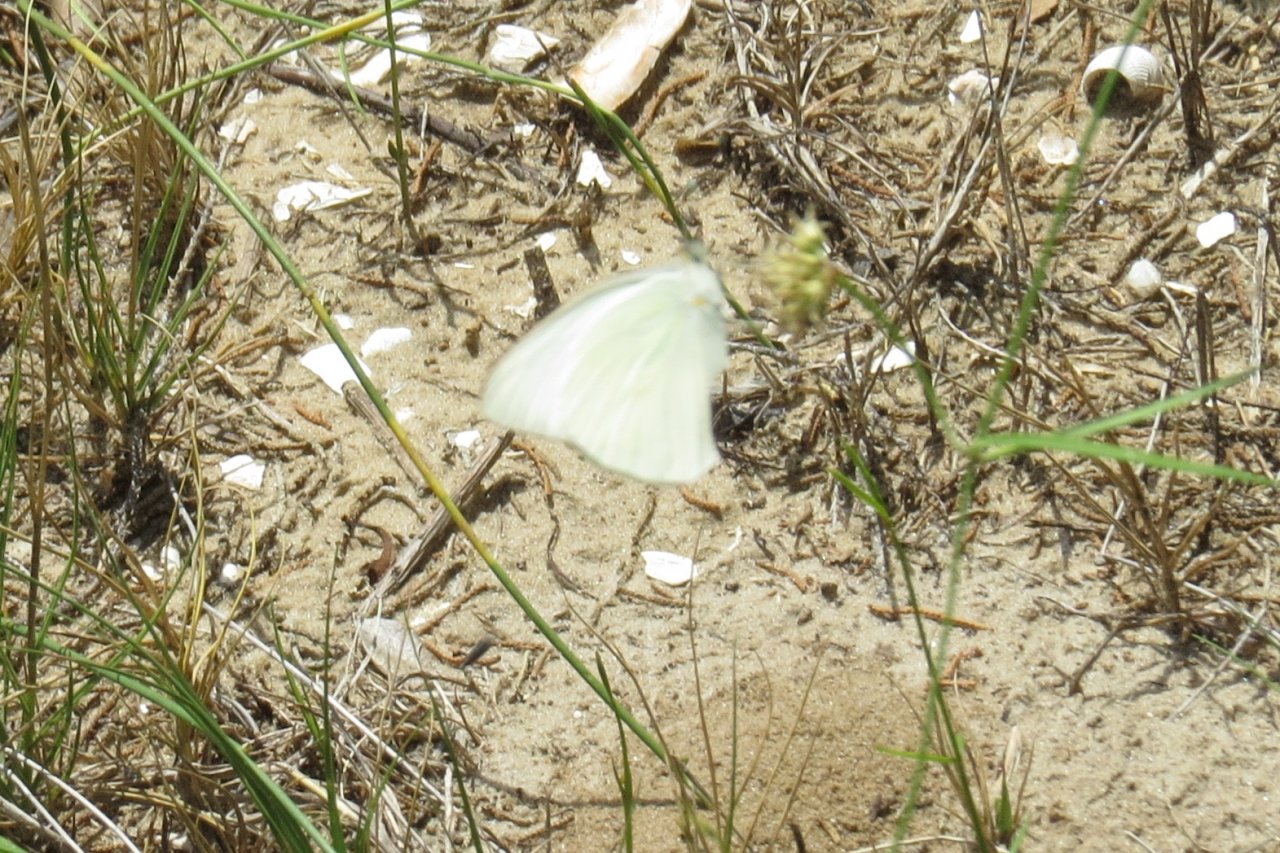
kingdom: Animalia
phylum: Arthropoda
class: Insecta
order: Lepidoptera
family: Pieridae
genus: Ascia
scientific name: Ascia monuste
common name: Great Southern White
